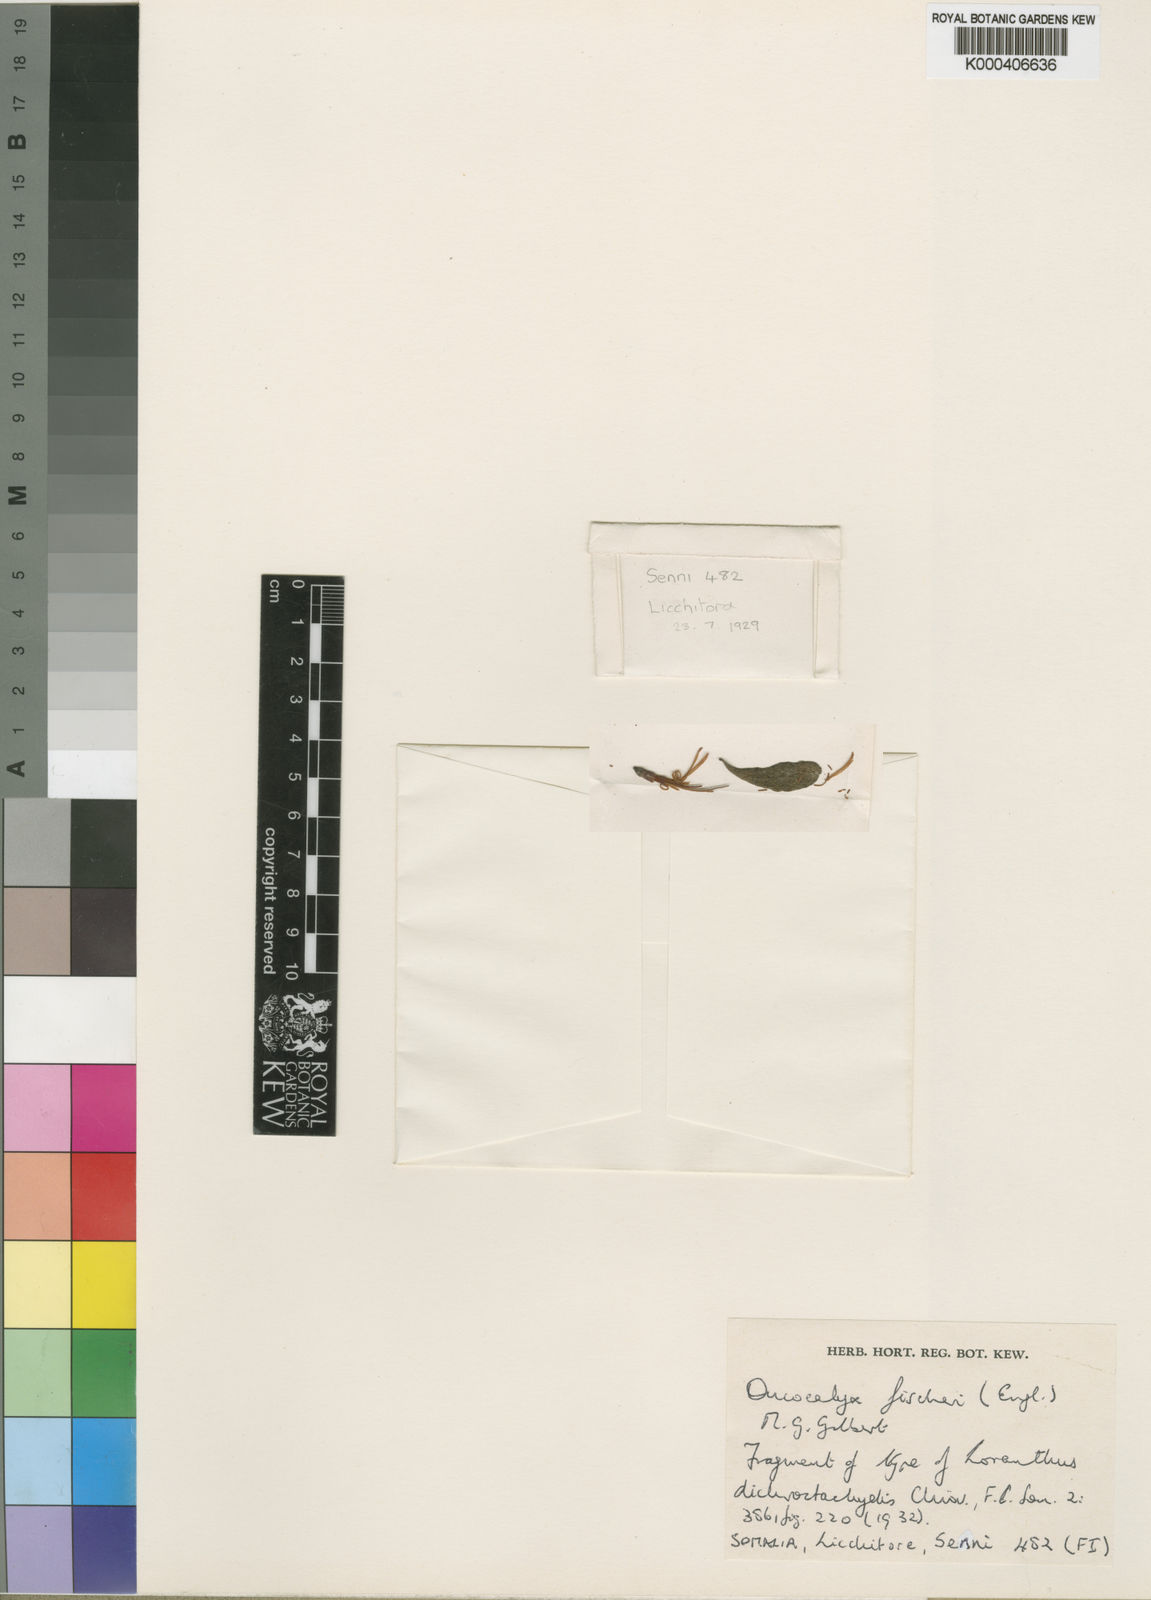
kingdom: Plantae
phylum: Tracheophyta
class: Magnoliopsida
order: Santalales
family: Loranthaceae
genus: Oncocalyx
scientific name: Oncocalyx fischeri
